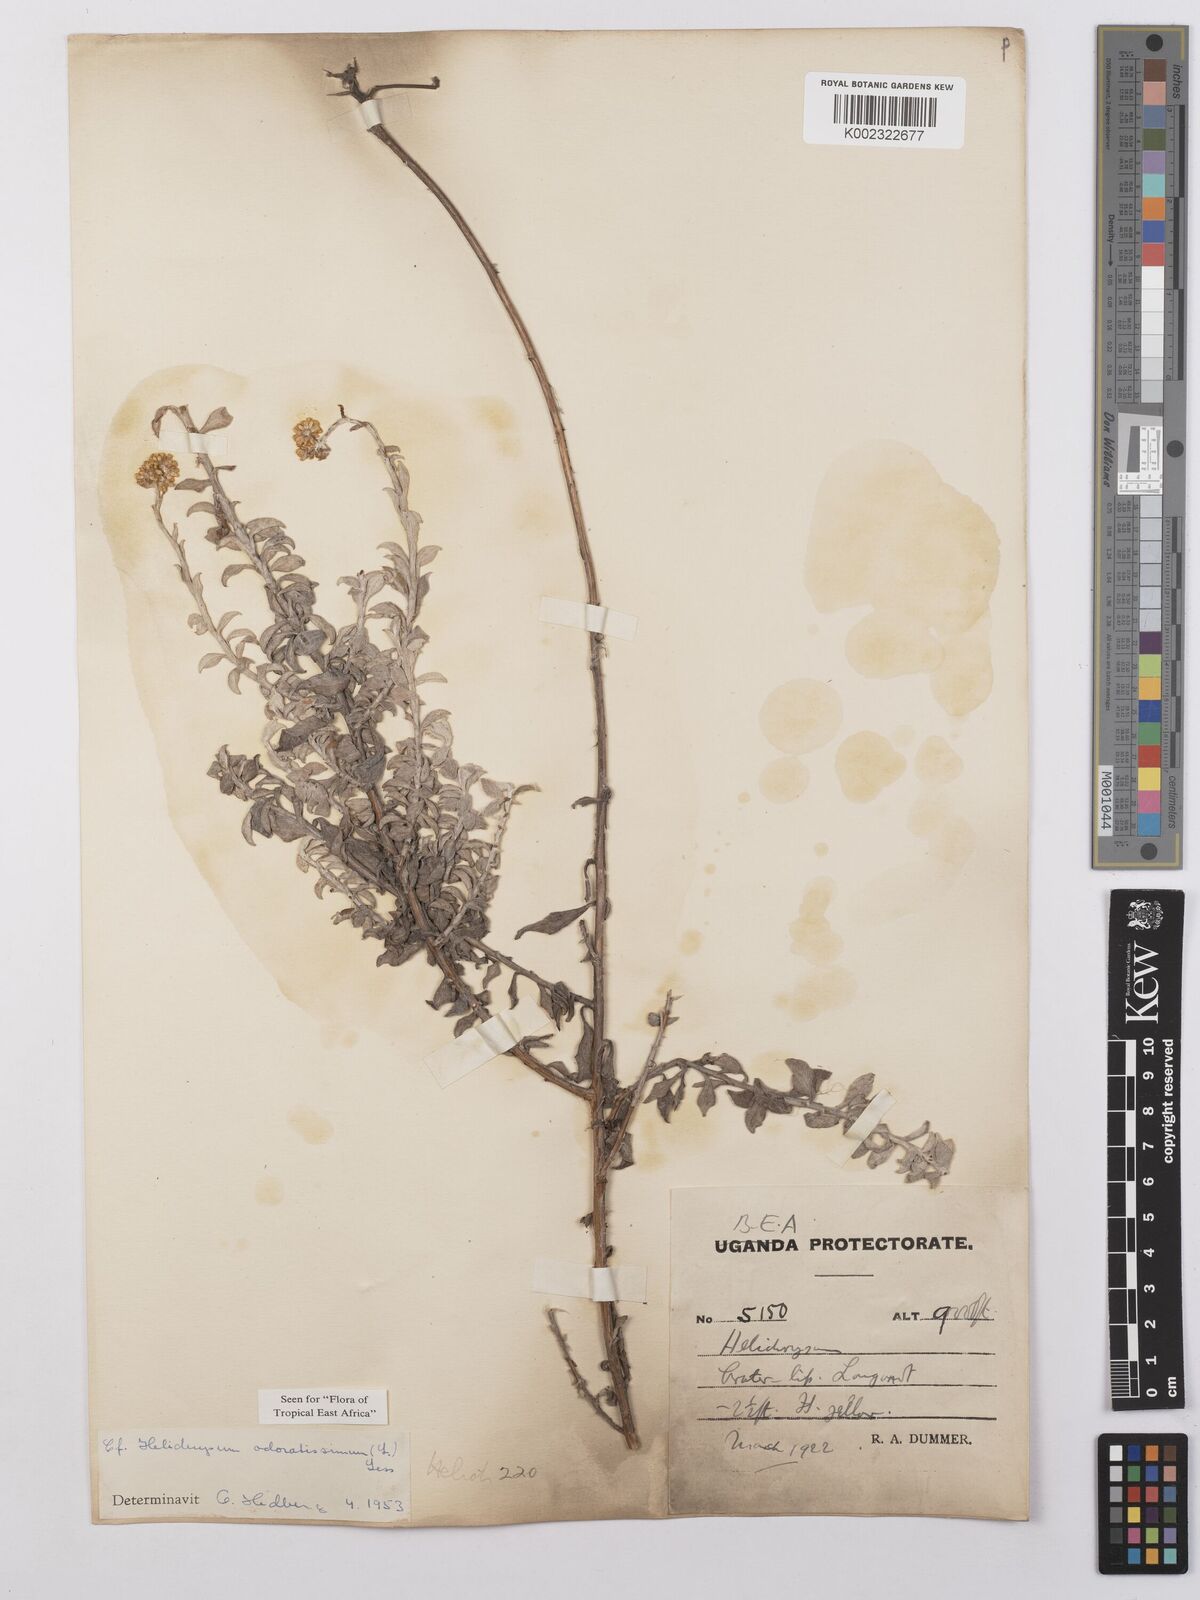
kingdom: Plantae
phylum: Tracheophyta
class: Magnoliopsida
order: Asterales
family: Asteraceae
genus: Helichrysum
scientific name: Helichrysum odoratissimum
